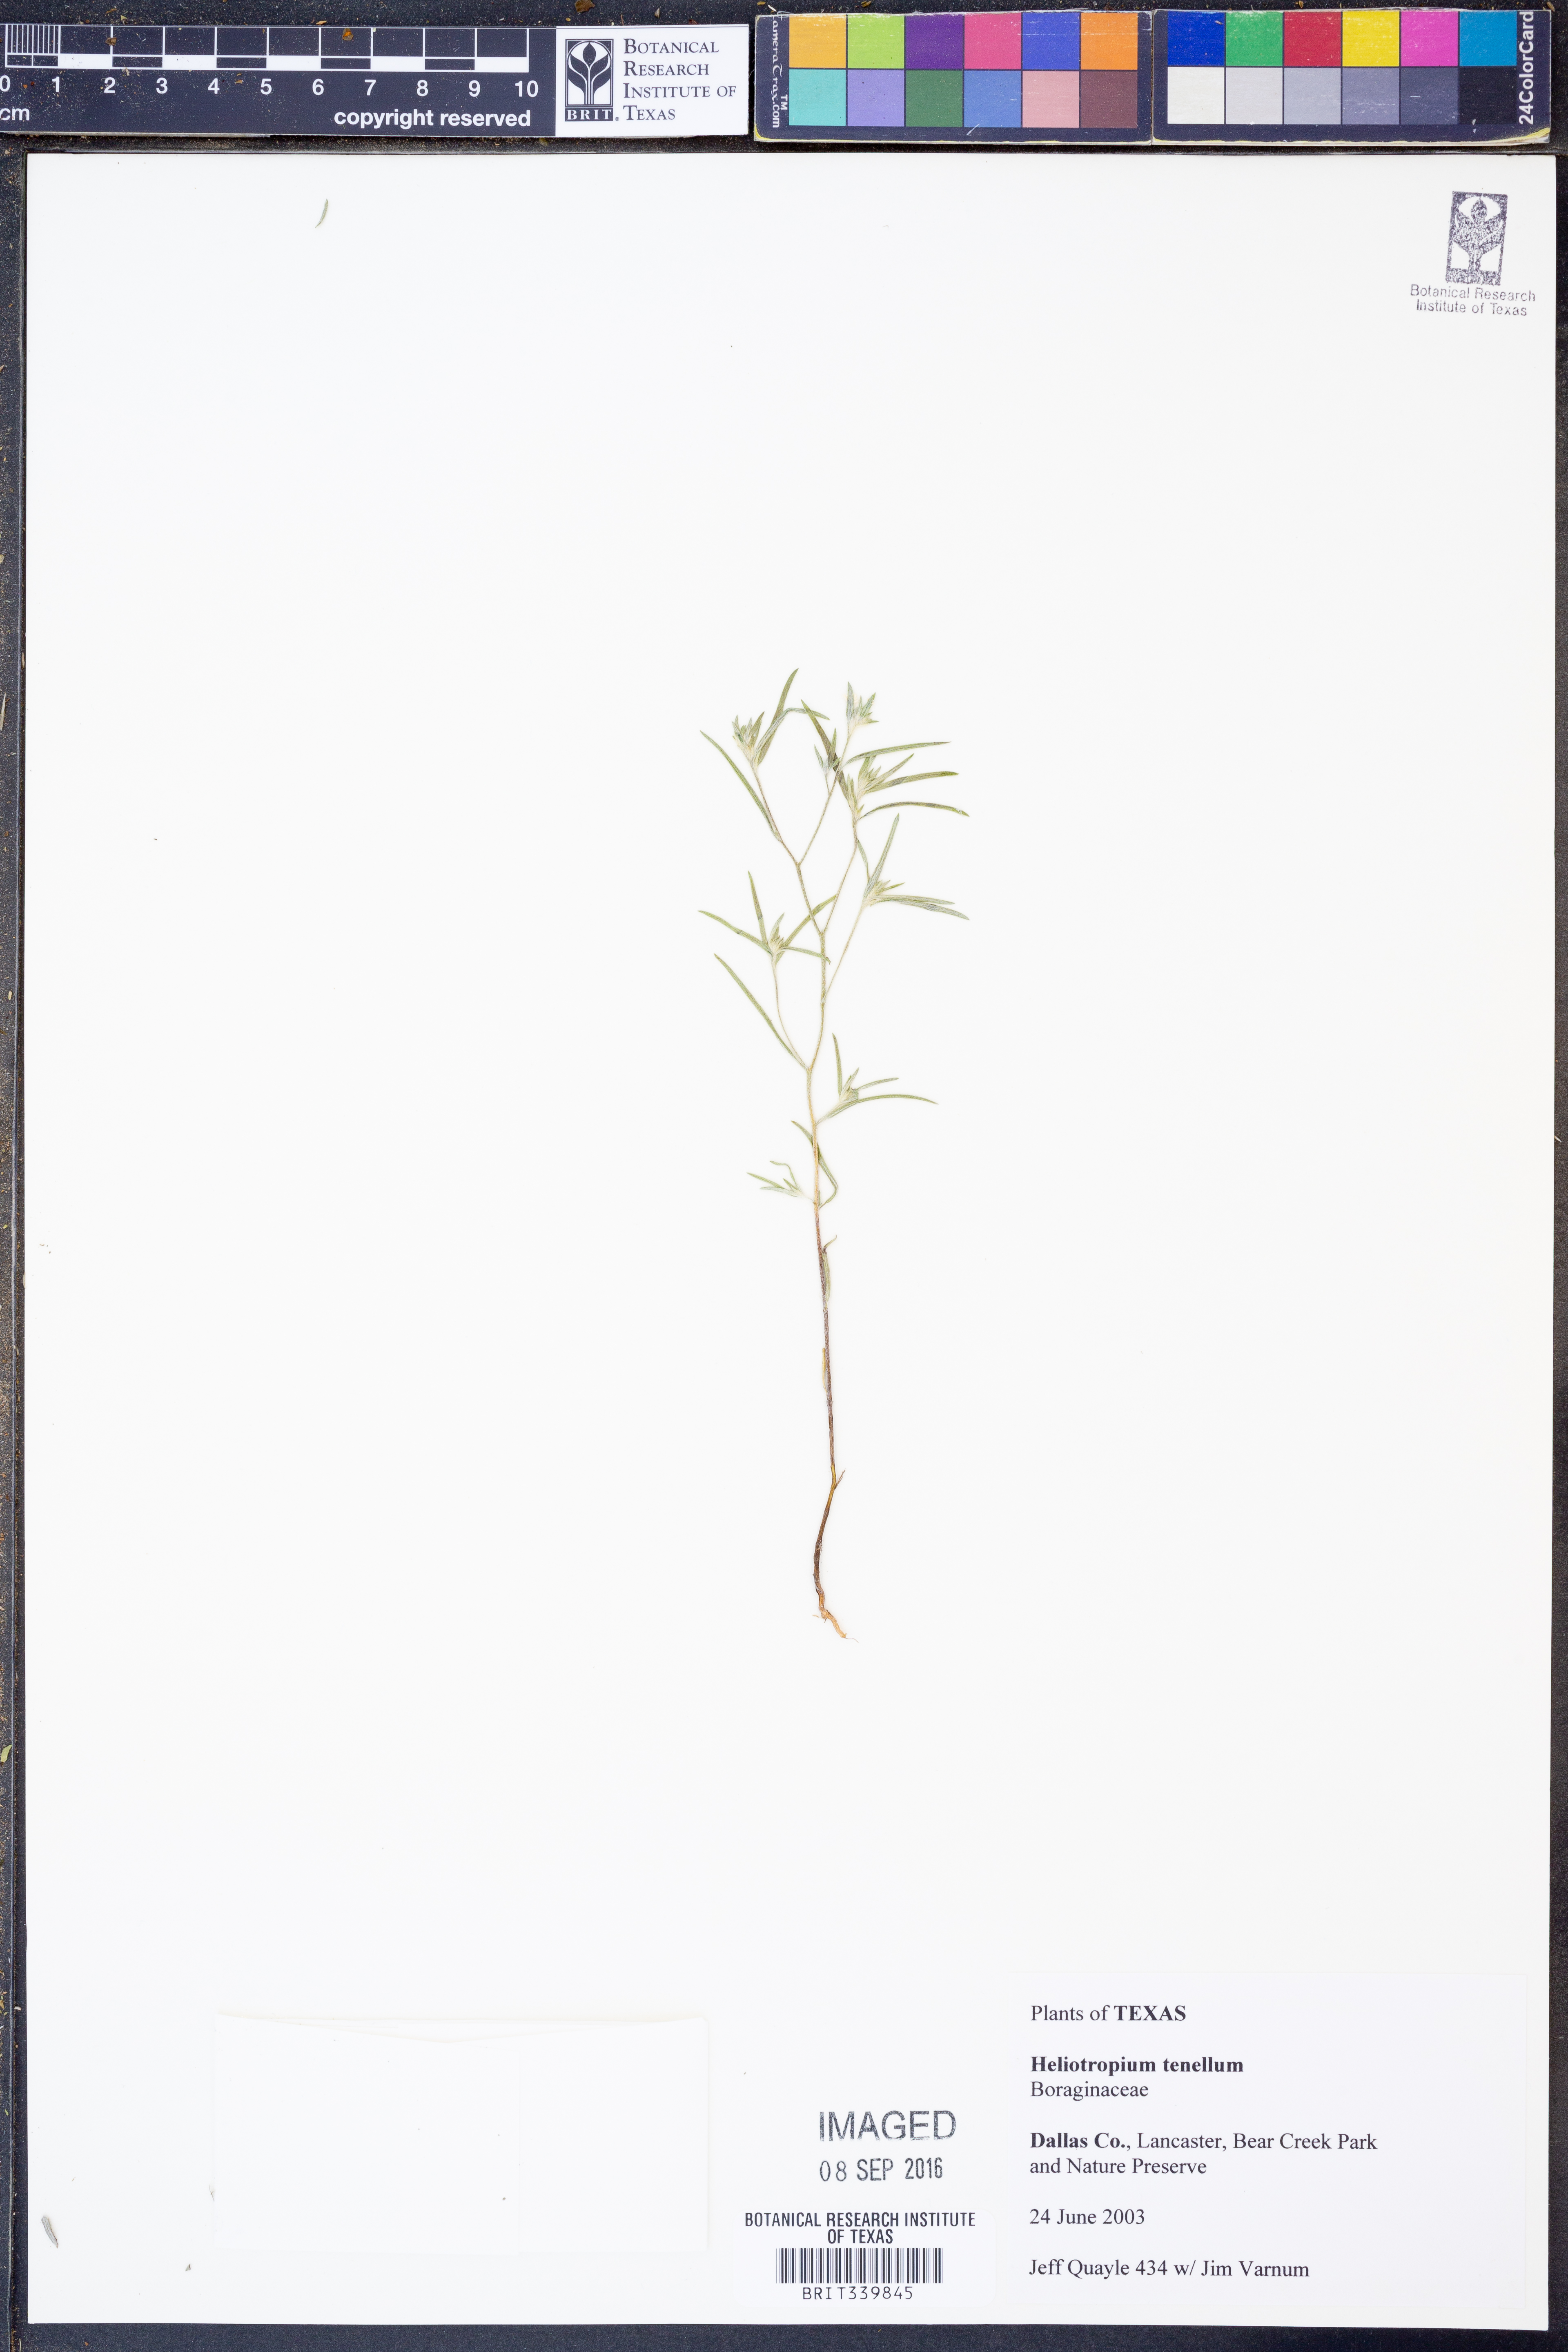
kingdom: Plantae
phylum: Tracheophyta
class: Magnoliopsida
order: Boraginales
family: Heliotropiaceae
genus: Euploca
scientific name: Euploca tenella
